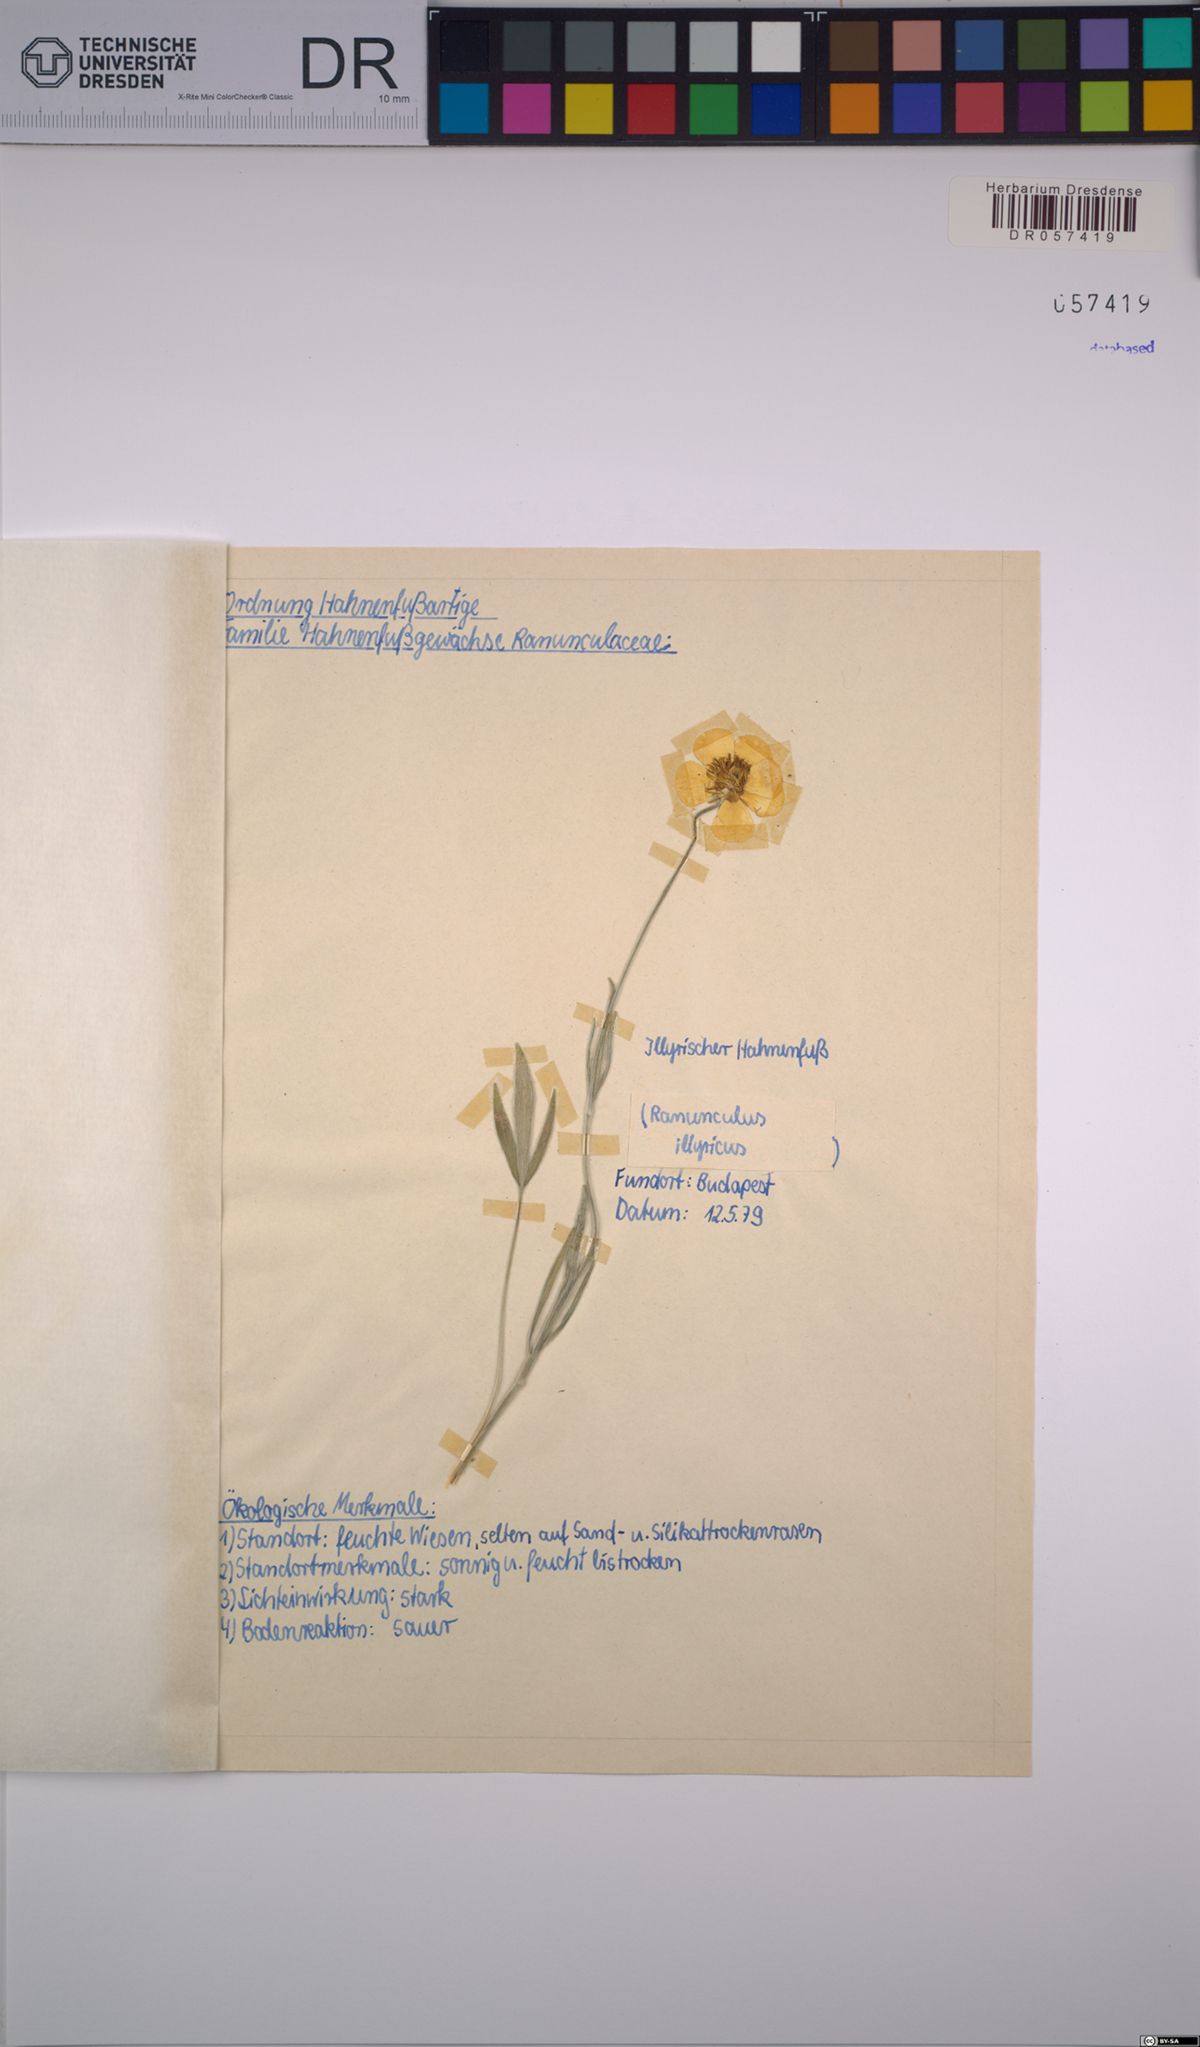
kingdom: Plantae
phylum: Tracheophyta
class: Magnoliopsida
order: Ranunculales
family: Ranunculaceae
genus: Ranunculus
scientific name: Ranunculus illyricus
